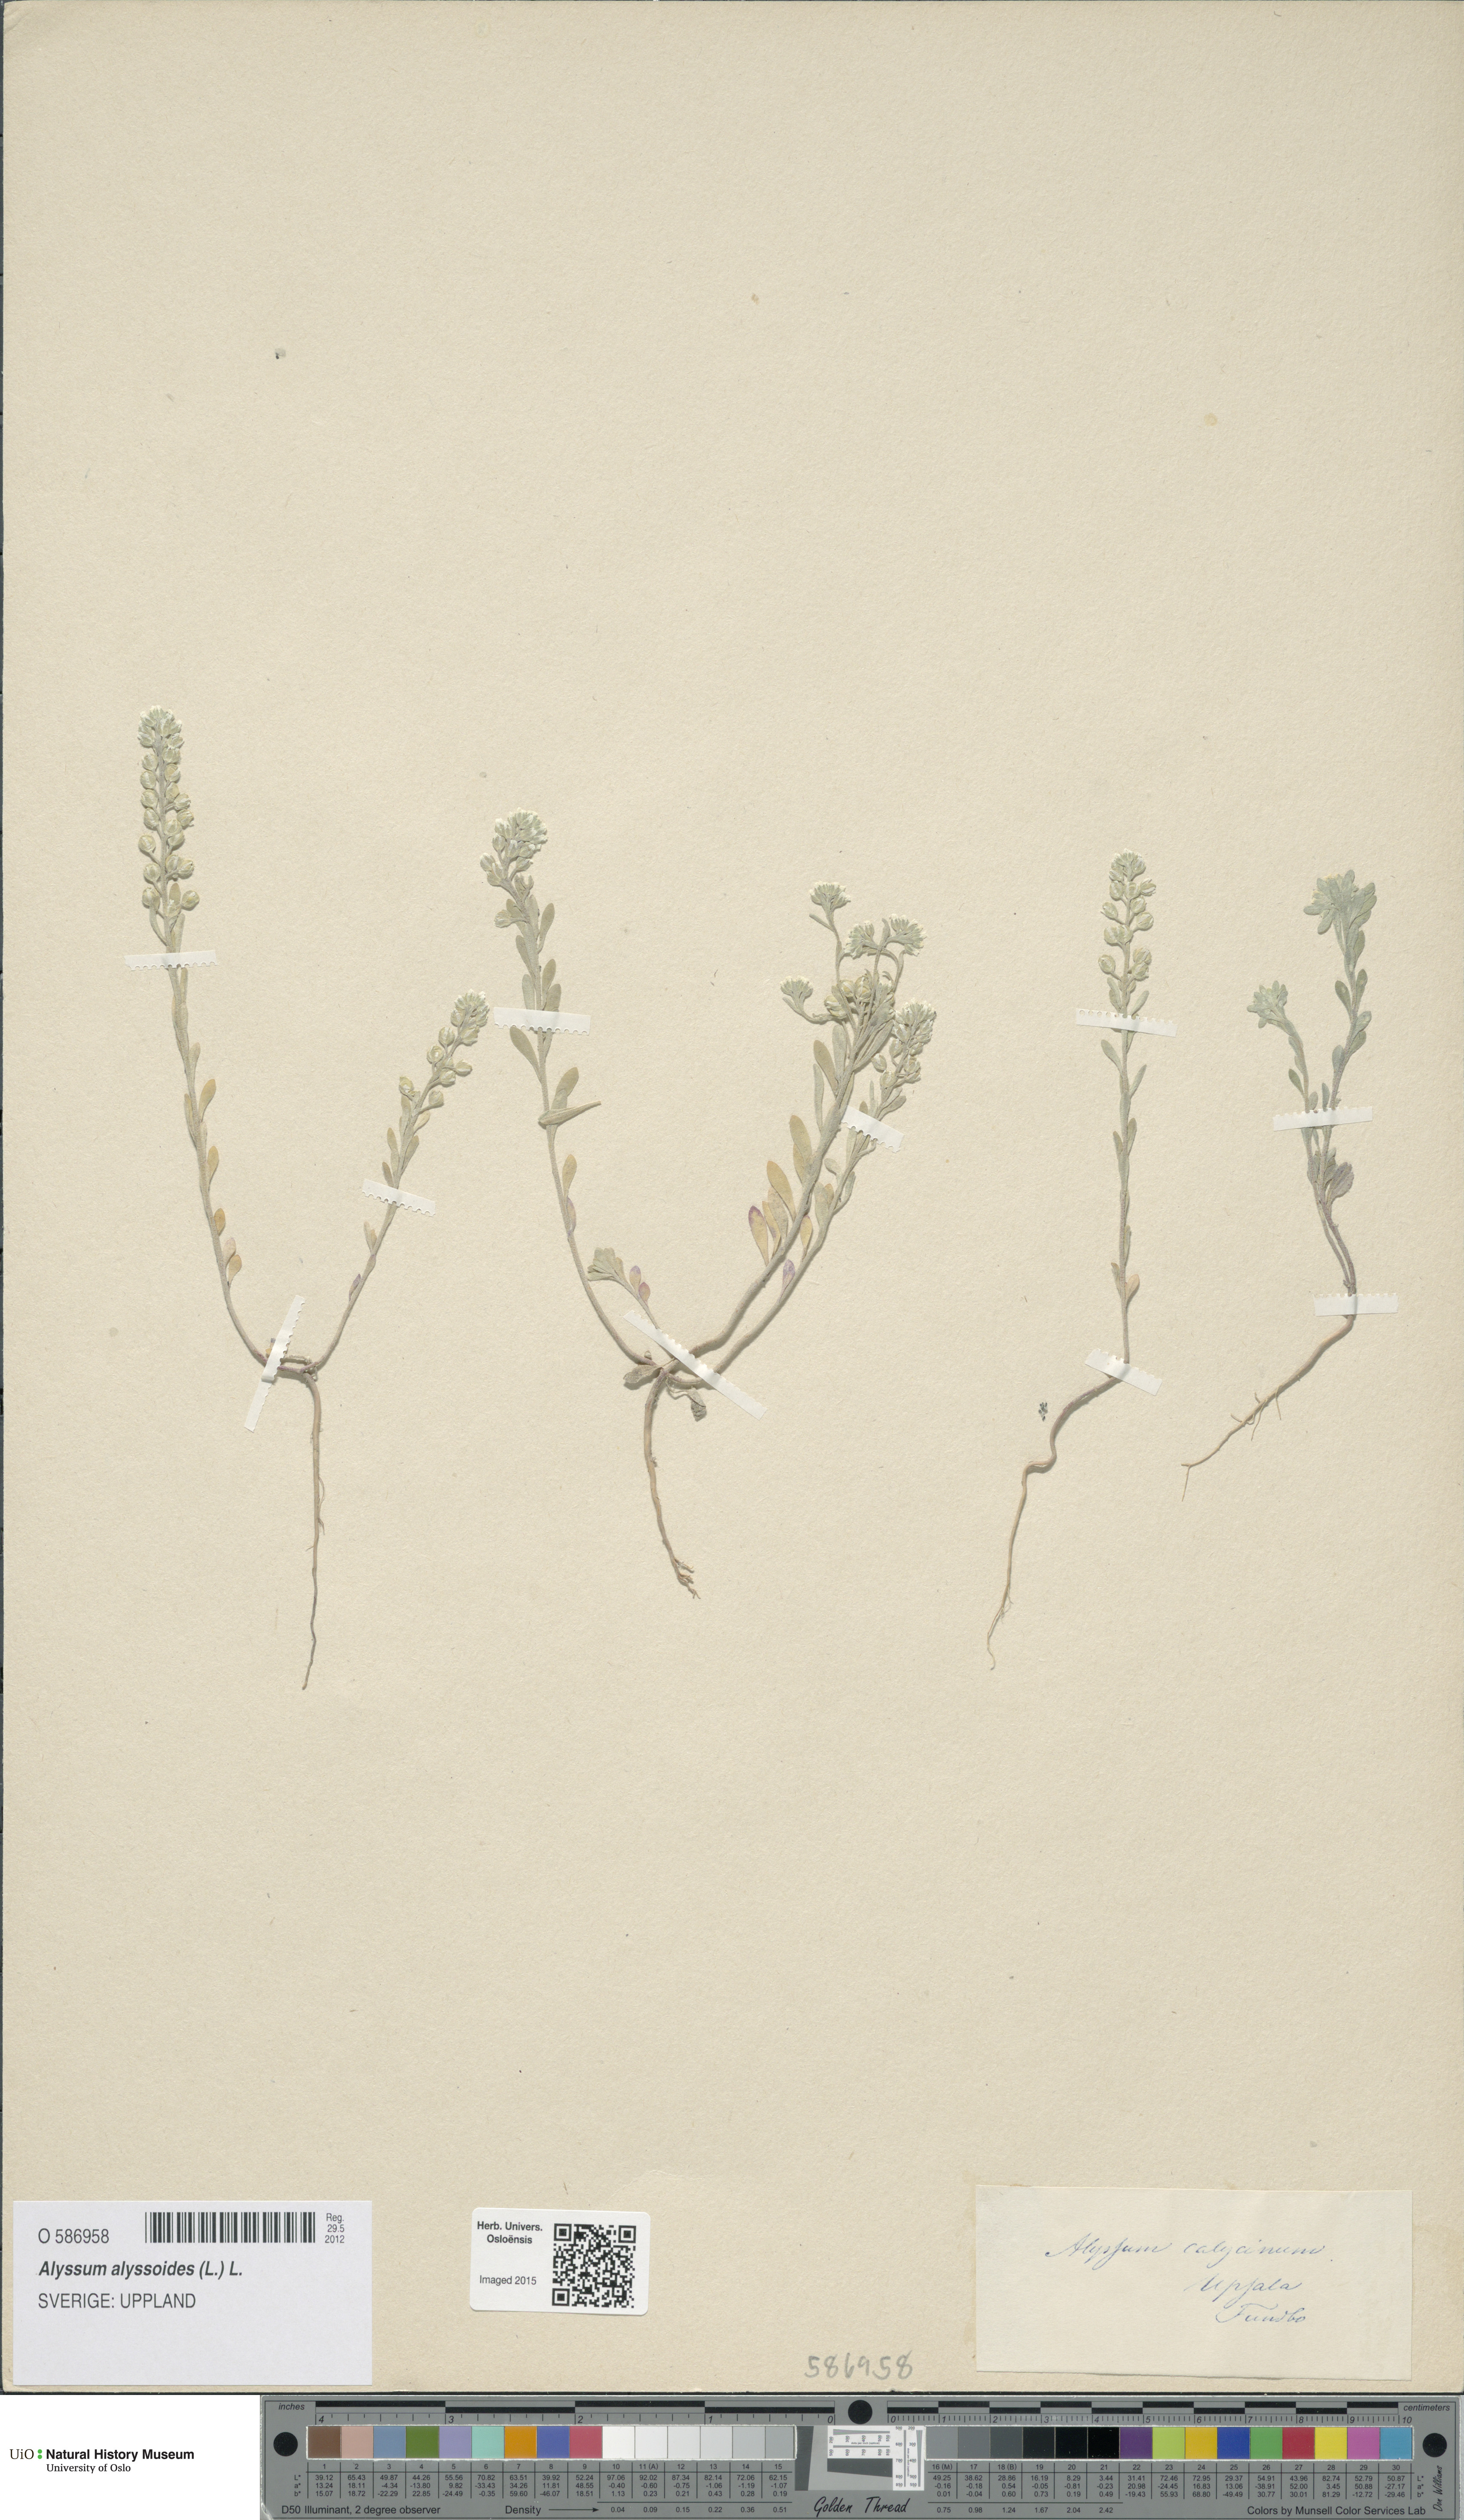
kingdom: Plantae
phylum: Tracheophyta
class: Magnoliopsida
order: Brassicales
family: Brassicaceae
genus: Alyssum
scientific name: Alyssum alyssoides
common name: Small alison
